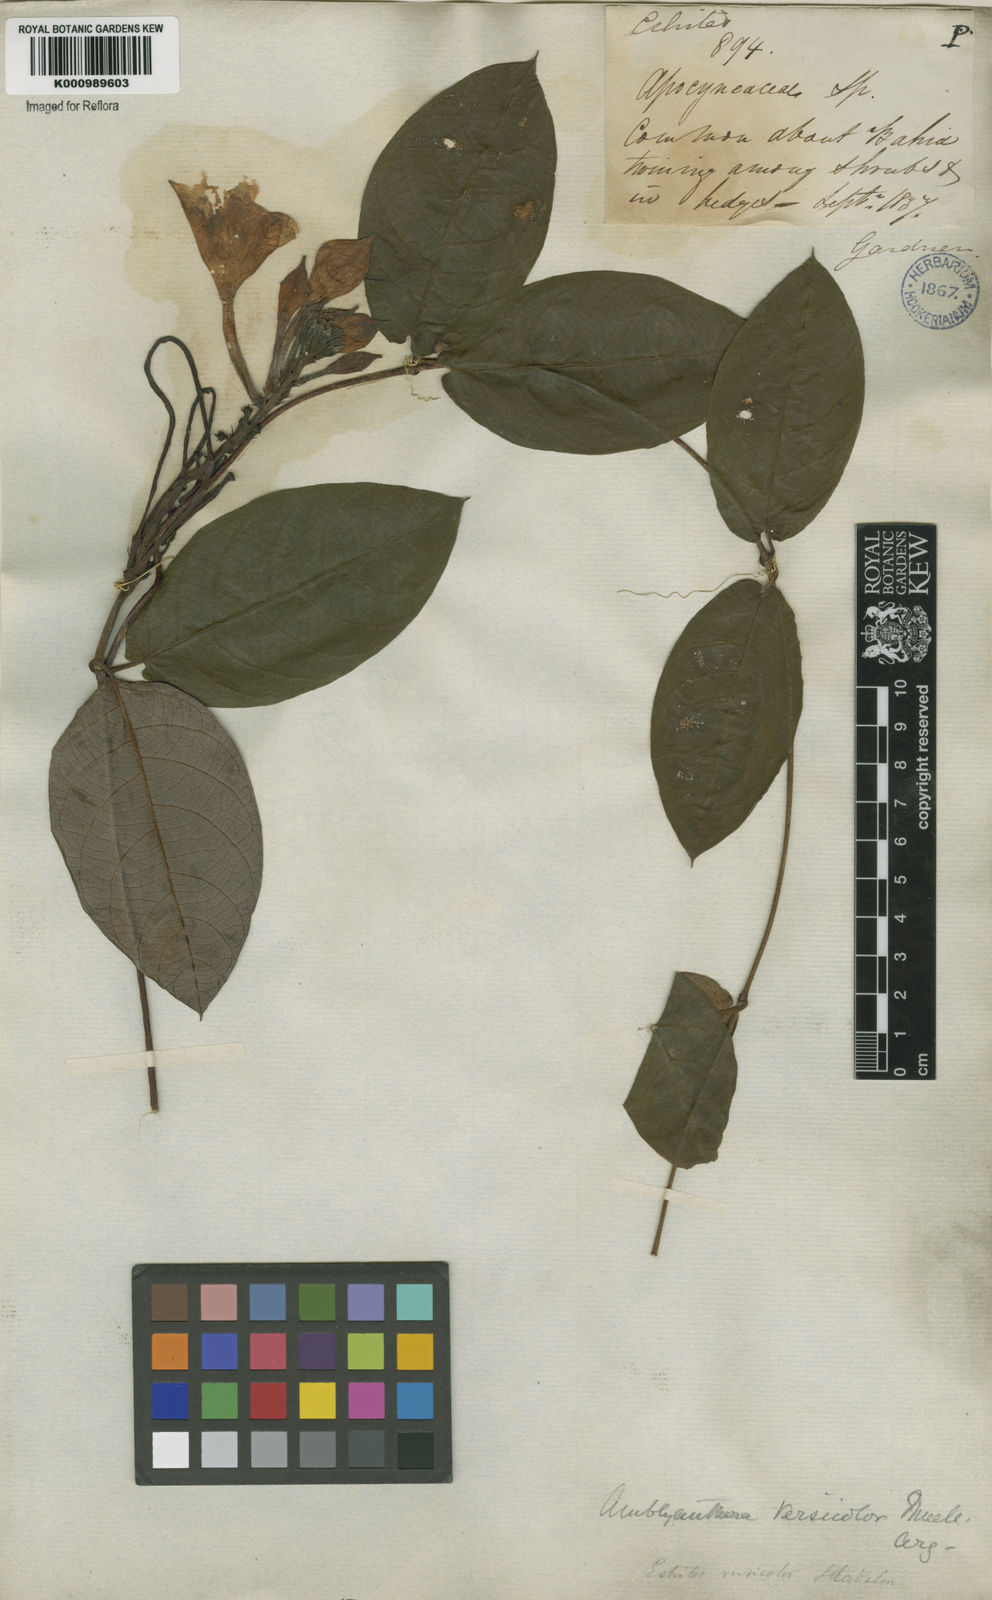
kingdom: Plantae
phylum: Tracheophyta
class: Magnoliopsida
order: Gentianales
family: Apocynaceae
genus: Mandevilla
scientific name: Mandevilla scabra
